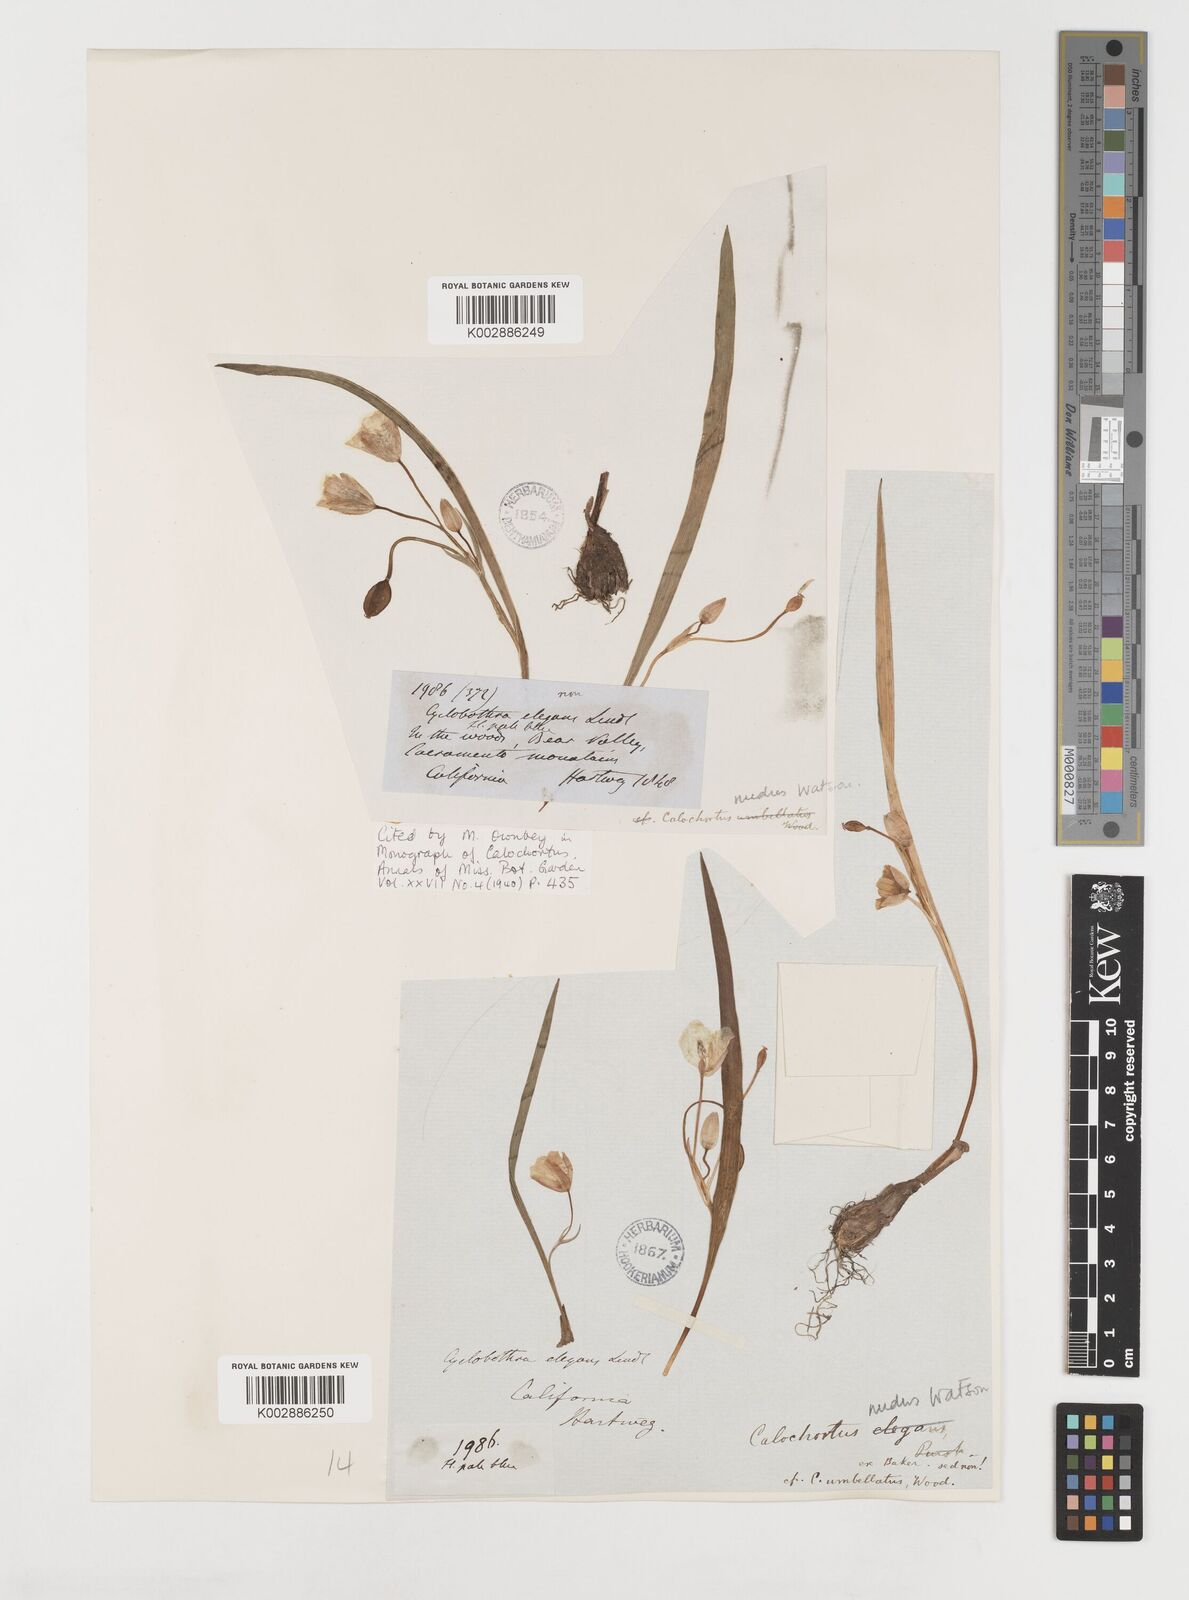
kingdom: Plantae
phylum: Tracheophyta
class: Liliopsida
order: Liliales
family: Liliaceae
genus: Calochortus
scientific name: Calochortus nudus
